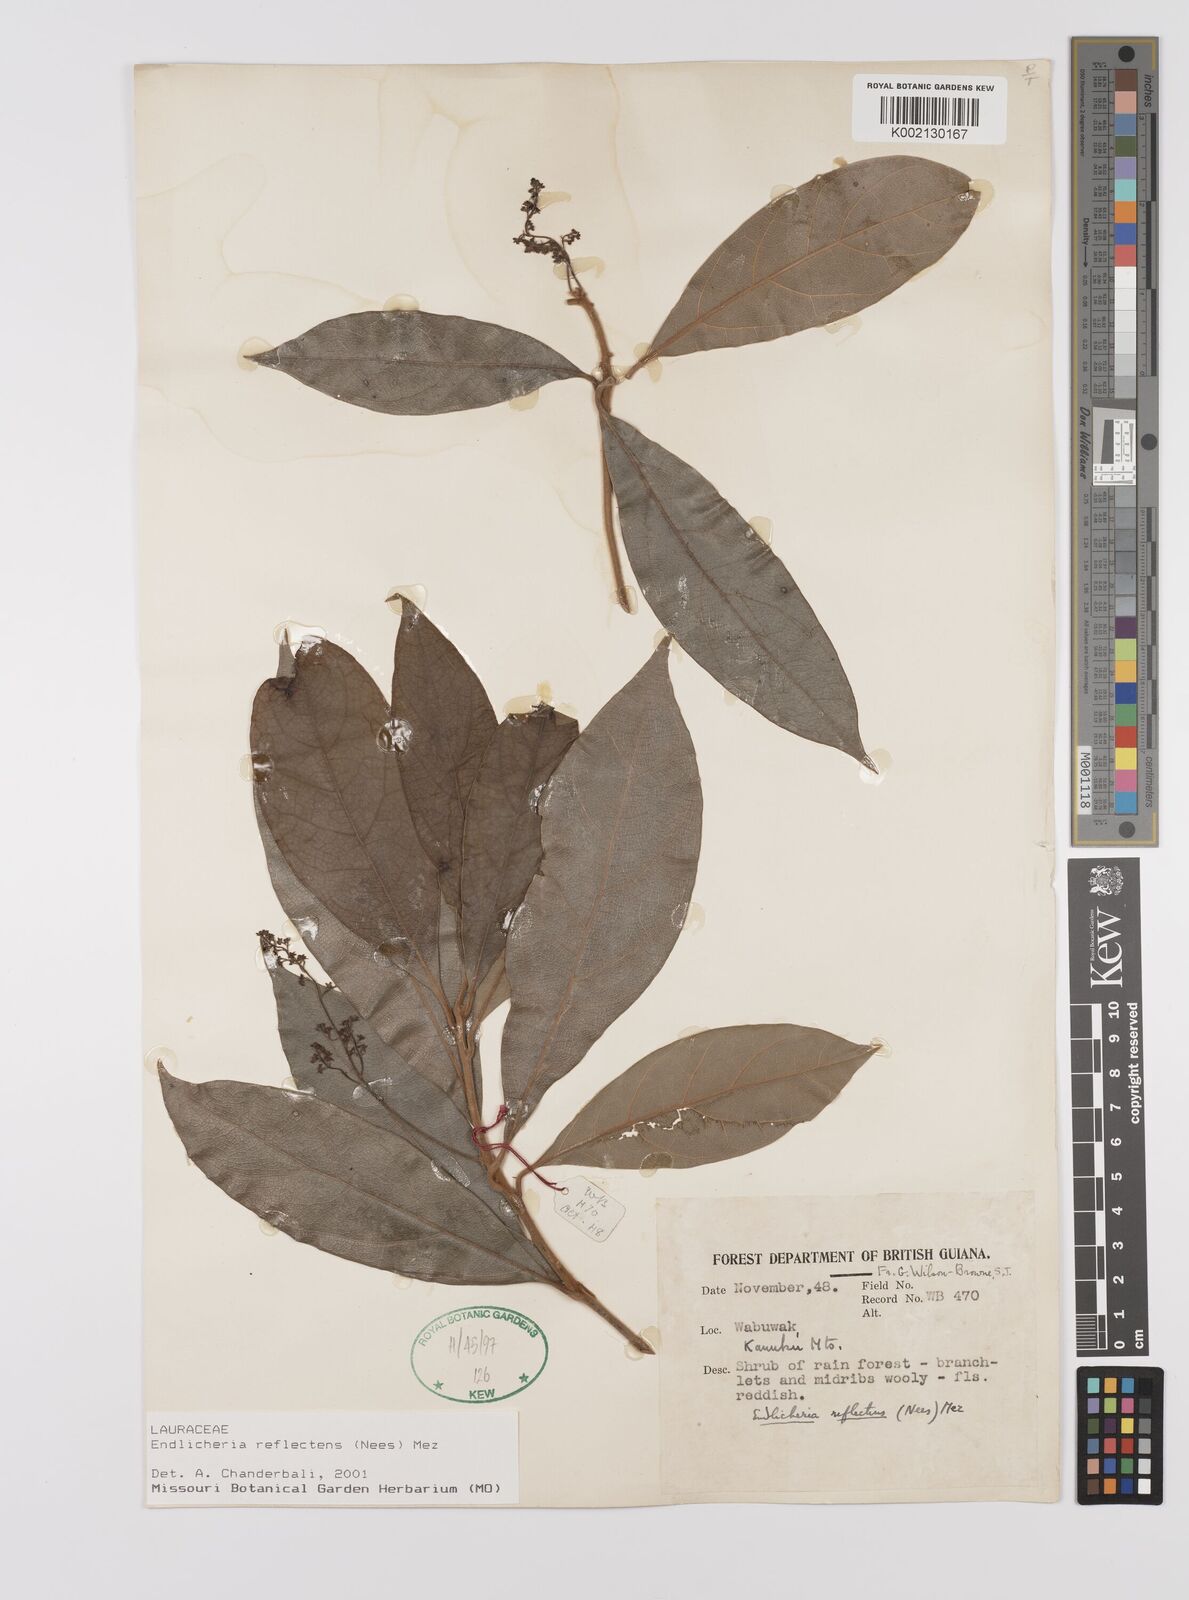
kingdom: Plantae
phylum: Tracheophyta
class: Magnoliopsida
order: Laurales
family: Lauraceae
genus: Endlicheria
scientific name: Endlicheria reflectens
